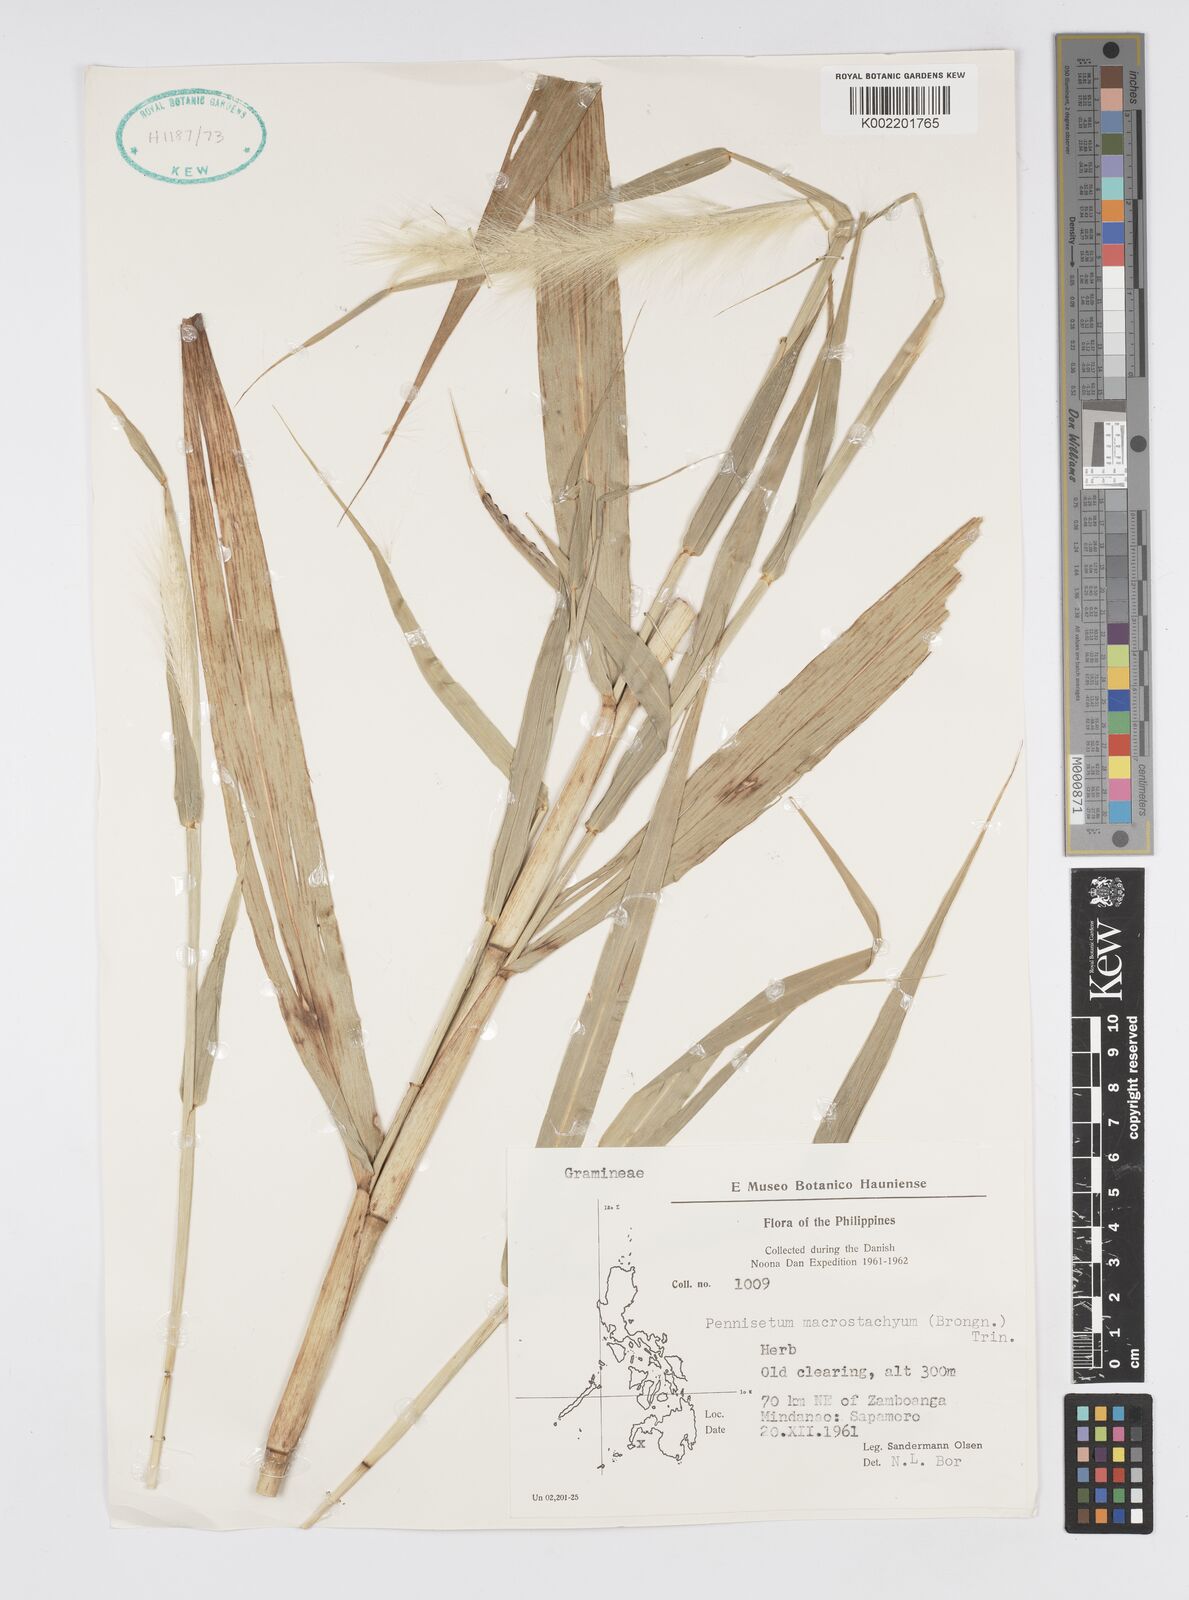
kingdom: Plantae
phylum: Tracheophyta
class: Liliopsida
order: Poales
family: Poaceae
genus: Cenchrus
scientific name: Cenchrus purpureus
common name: Elephant grass
